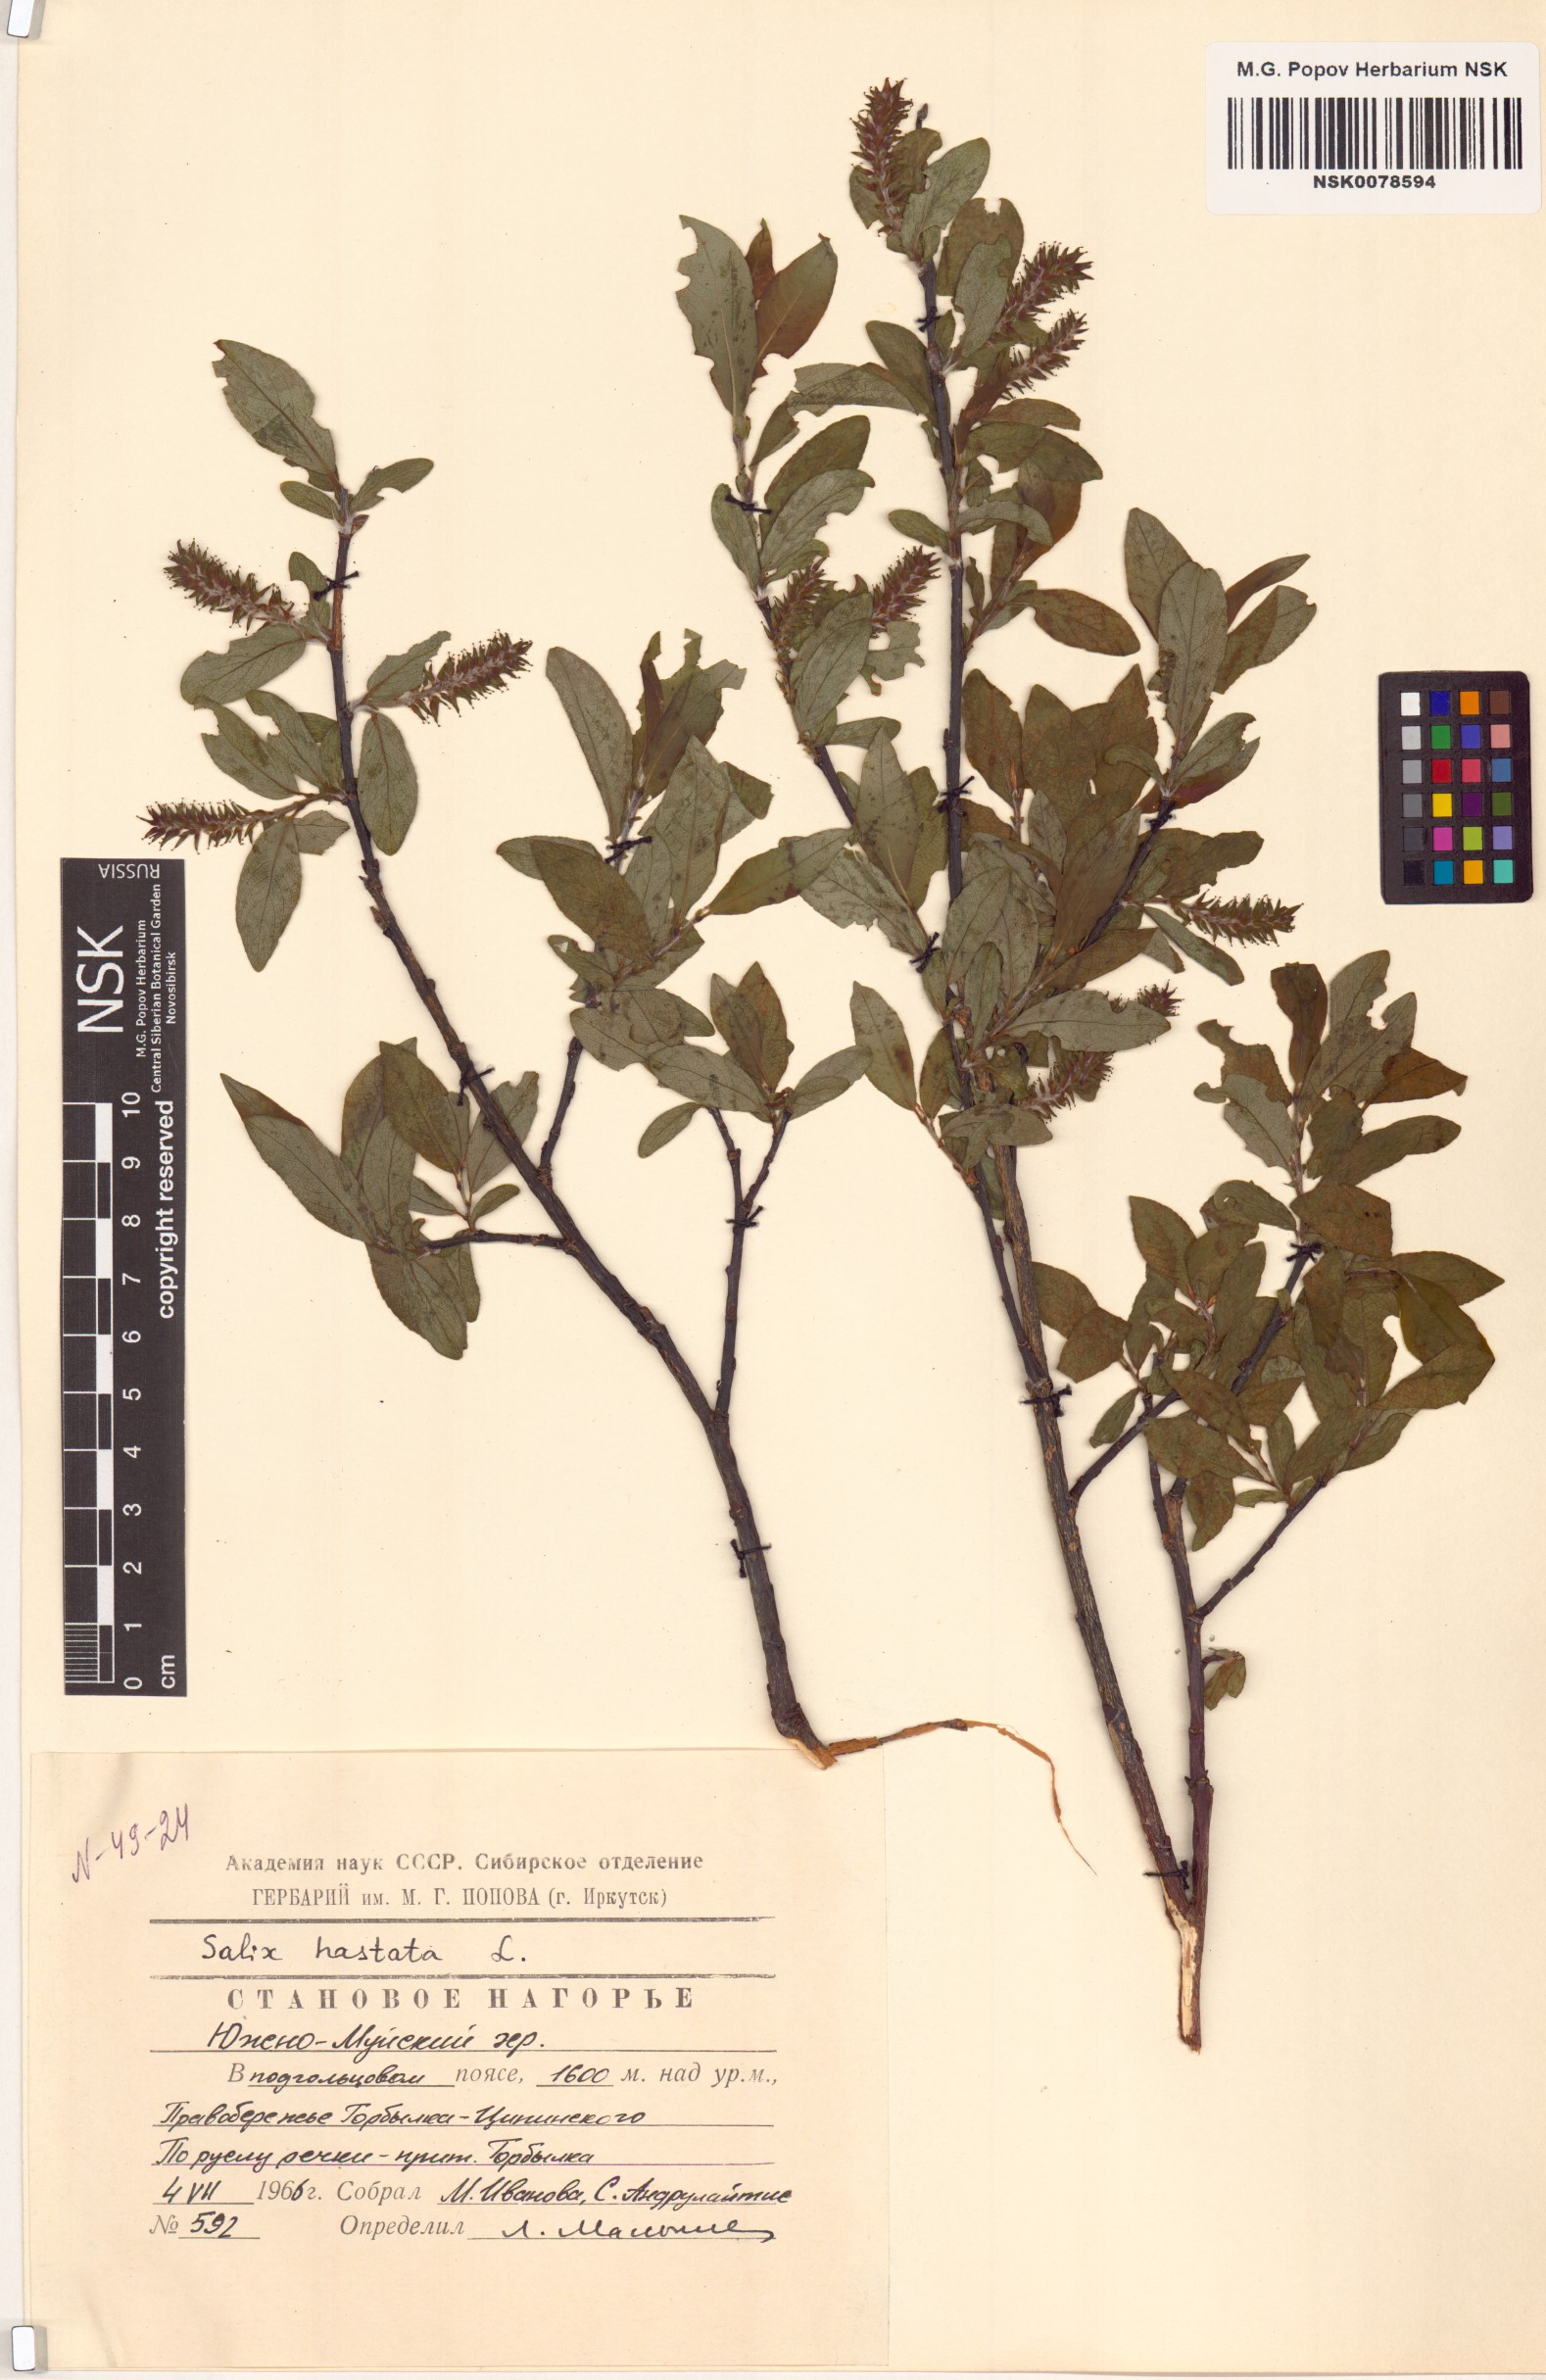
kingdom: Plantae
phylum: Tracheophyta
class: Magnoliopsida
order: Malpighiales
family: Salicaceae
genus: Salix
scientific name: Salix hastata
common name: Halberd willow
